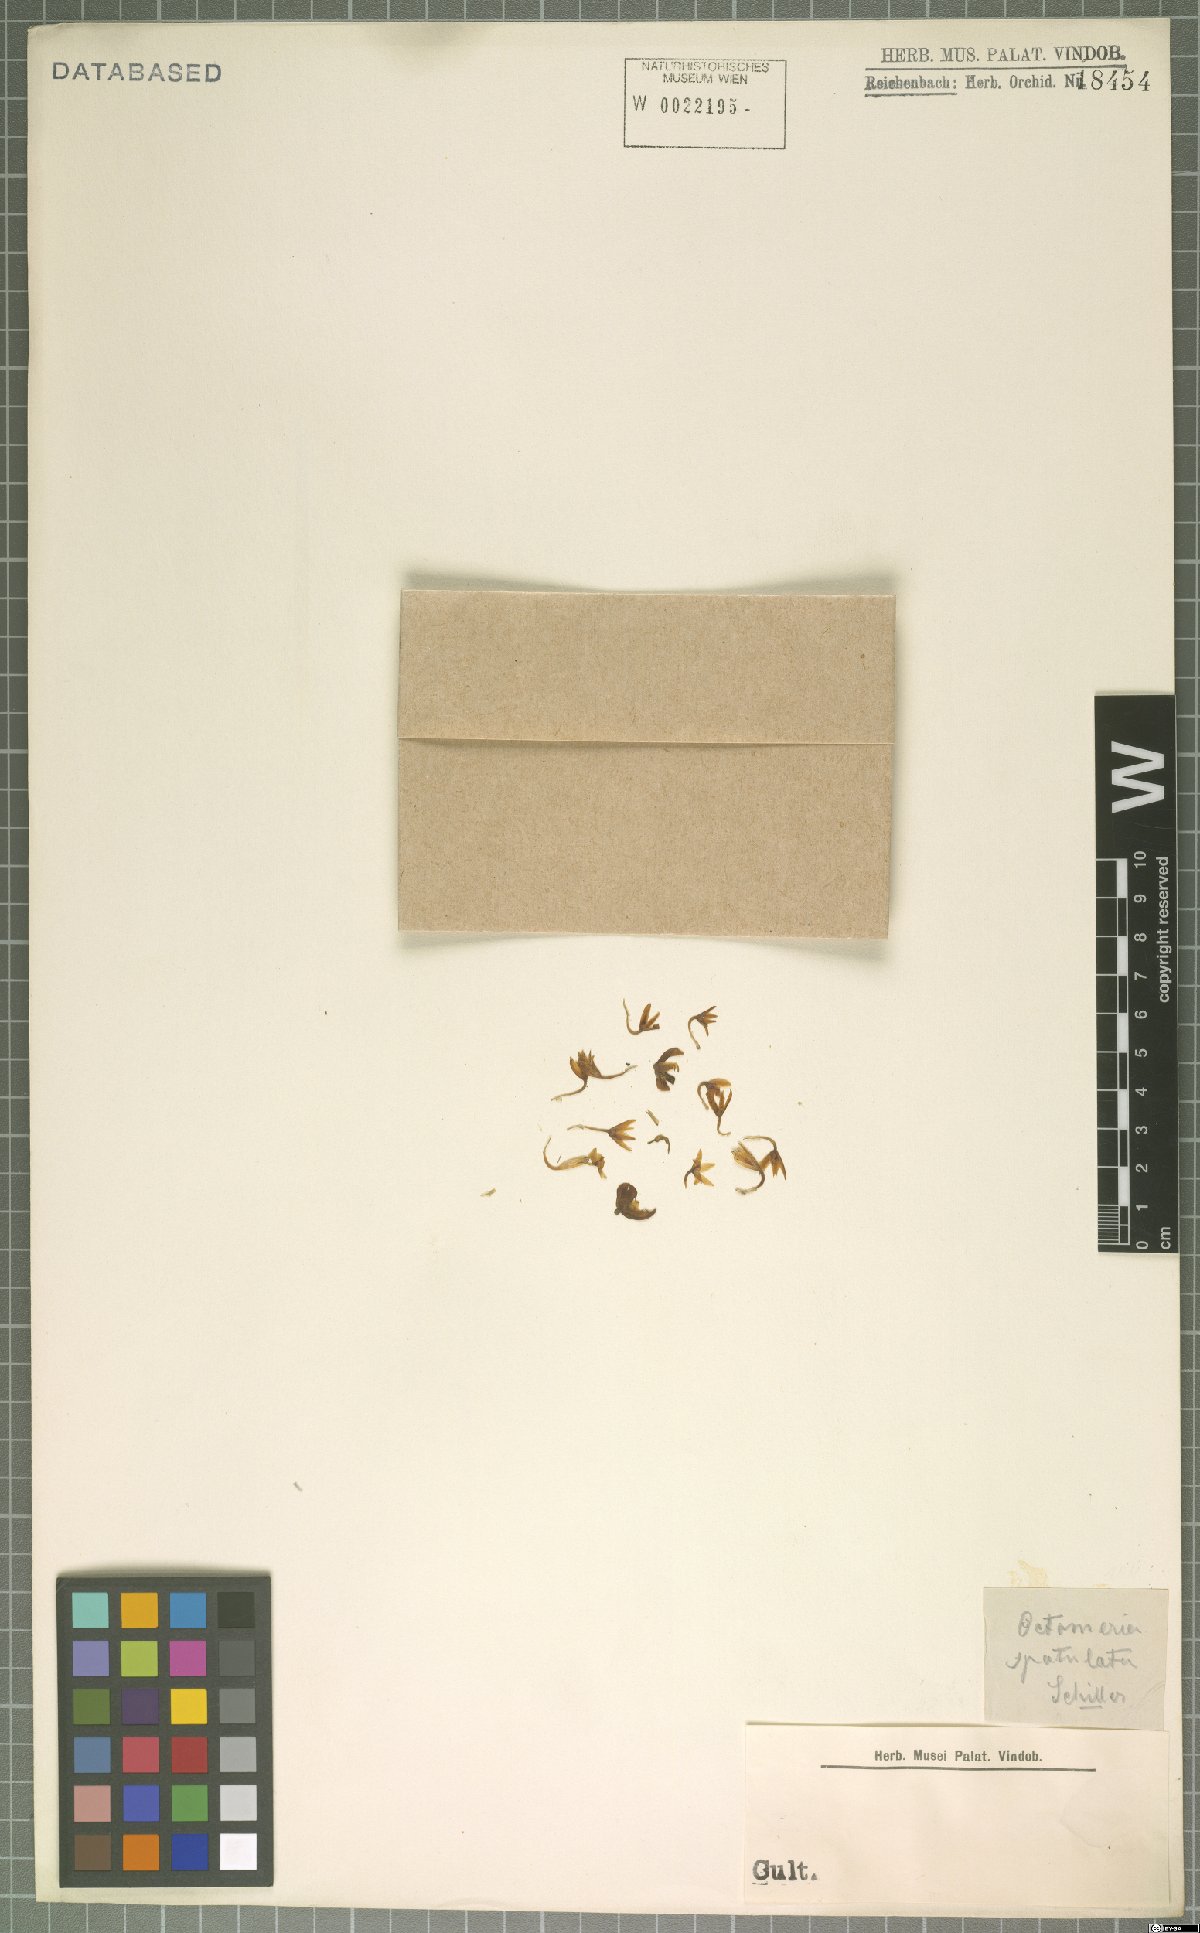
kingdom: Plantae
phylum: Tracheophyta
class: Liliopsida
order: Asparagales
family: Orchidaceae
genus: Octomeria
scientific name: Octomeria spatulata
